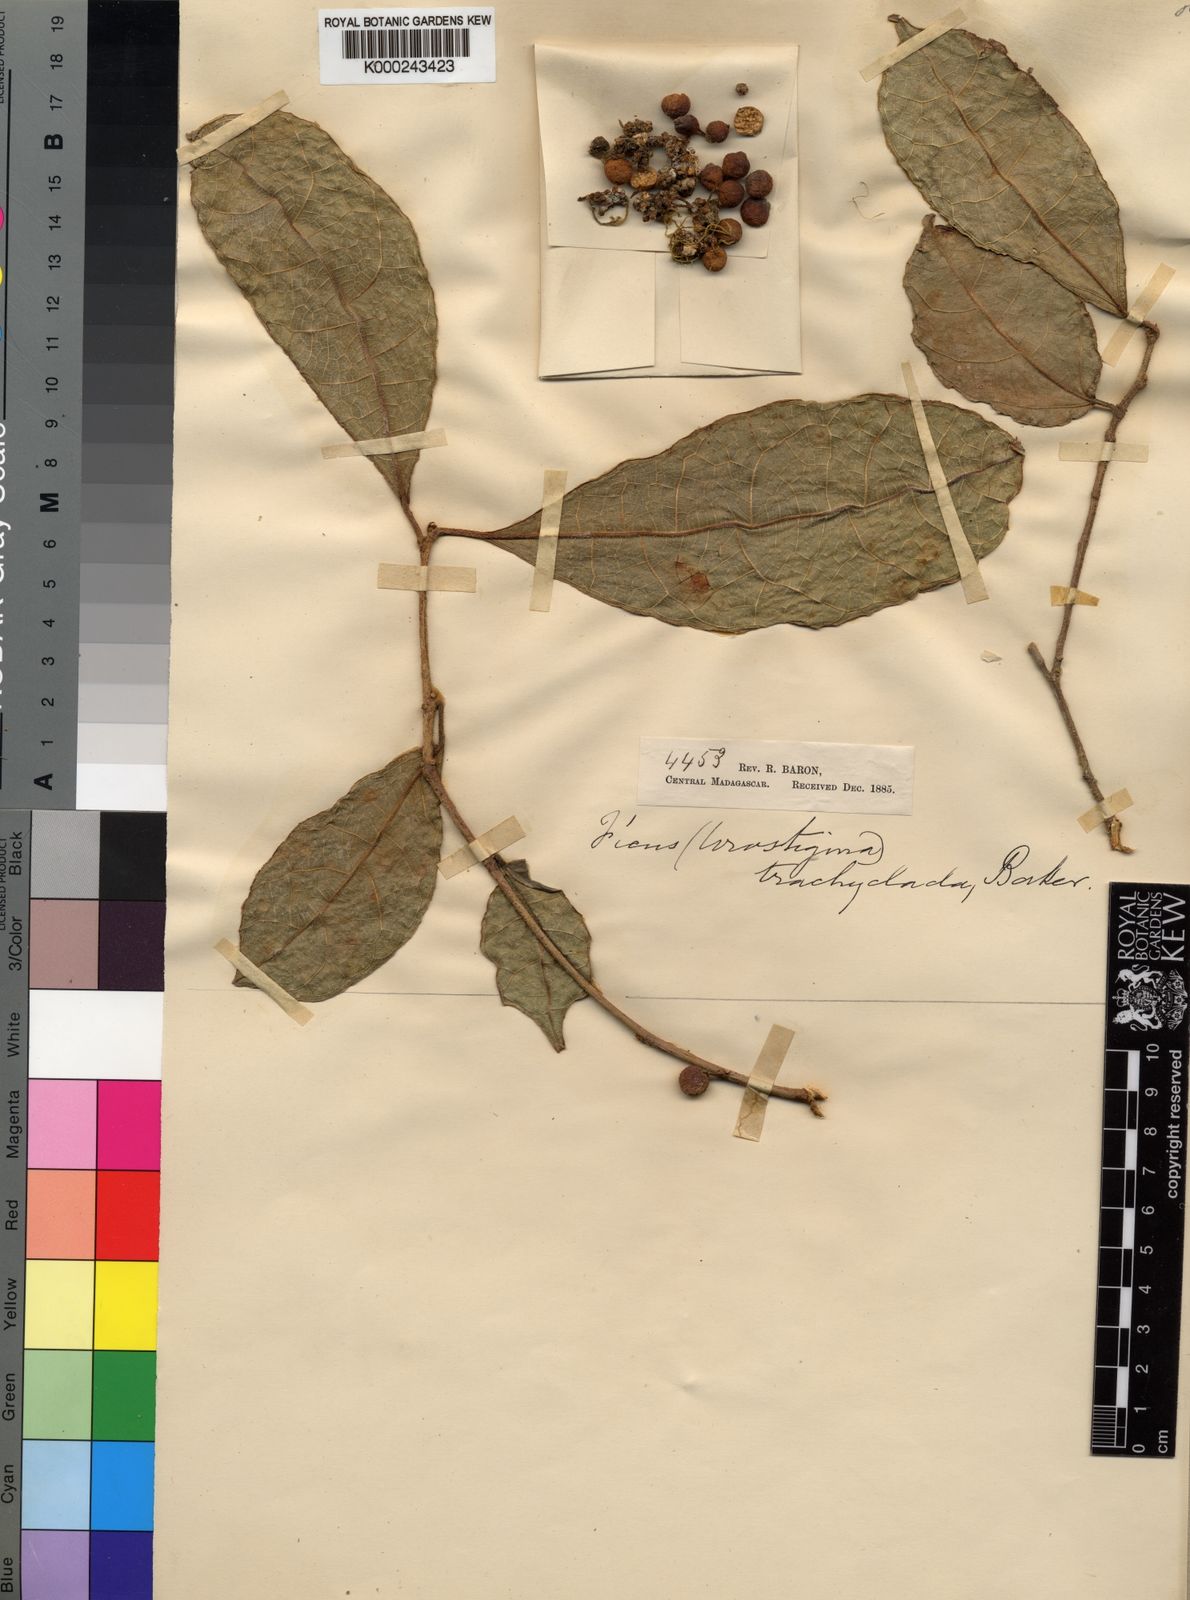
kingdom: Plantae
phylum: Tracheophyta
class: Magnoliopsida
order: Rosales
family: Moraceae
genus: Ficus
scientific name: Ficus brachyclada
